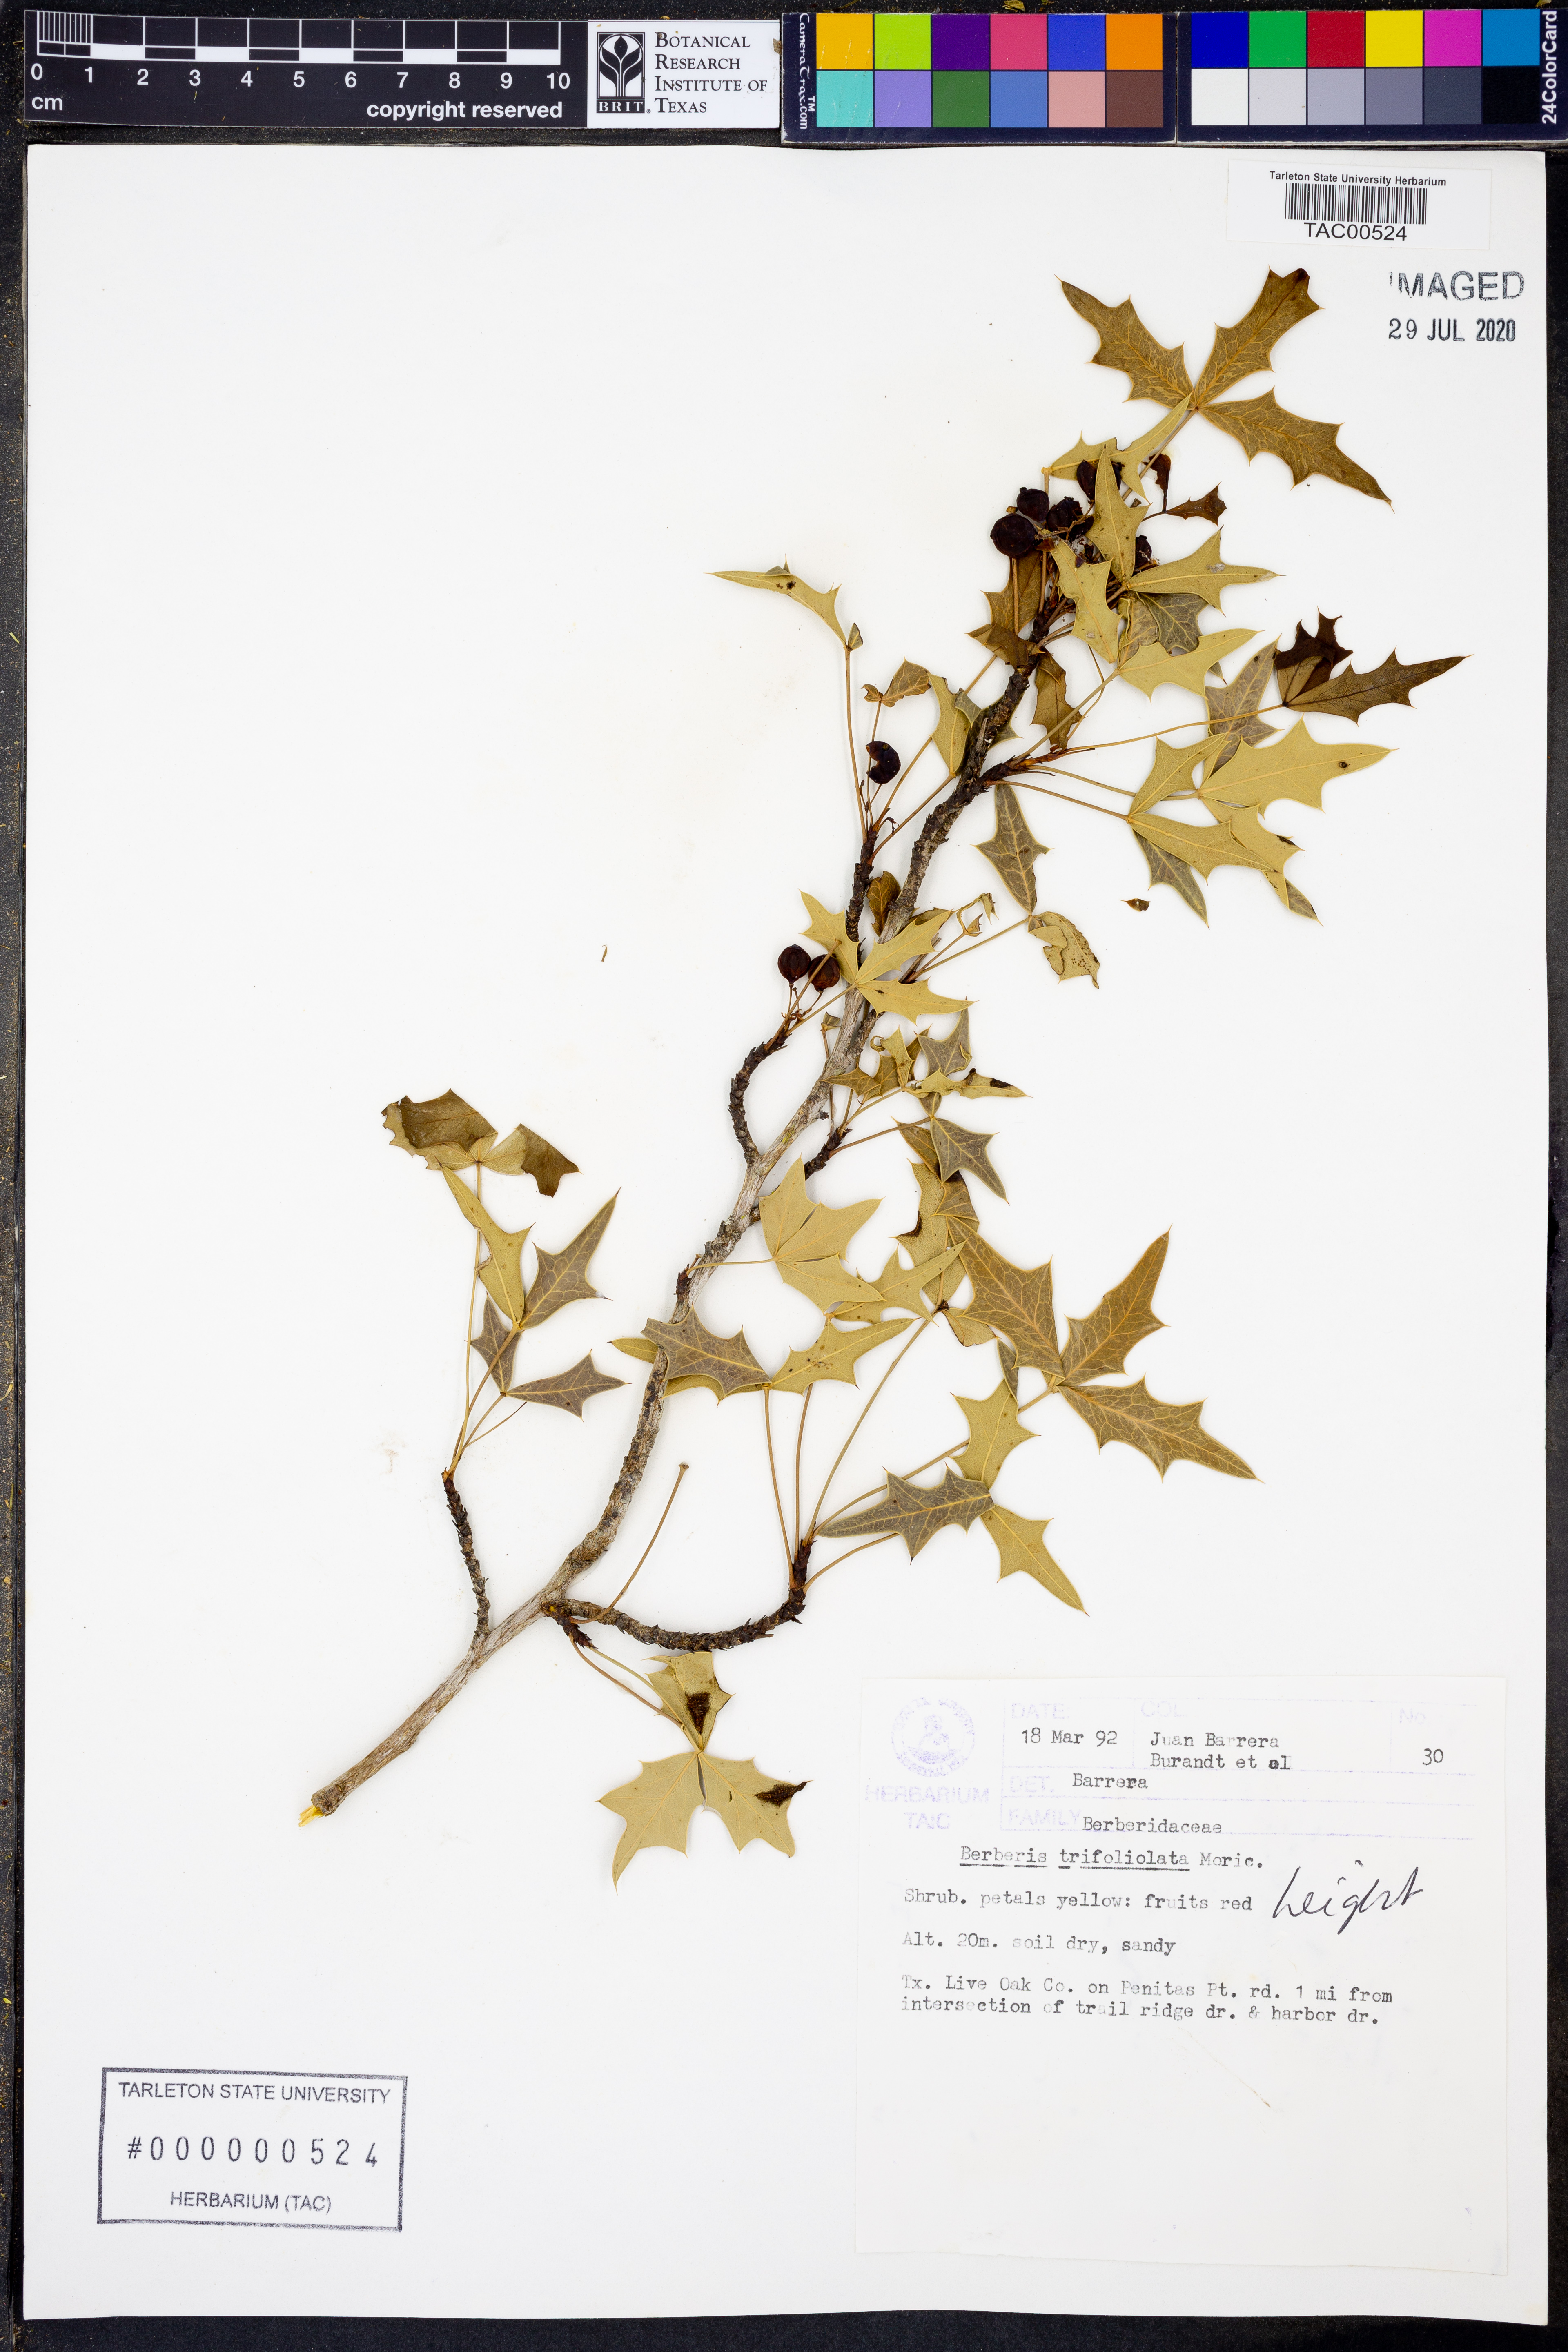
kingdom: Plantae
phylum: Tracheophyta
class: Magnoliopsida
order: Ranunculales
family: Berberidaceae
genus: Alloberberis
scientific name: Alloberberis trifoliolata
